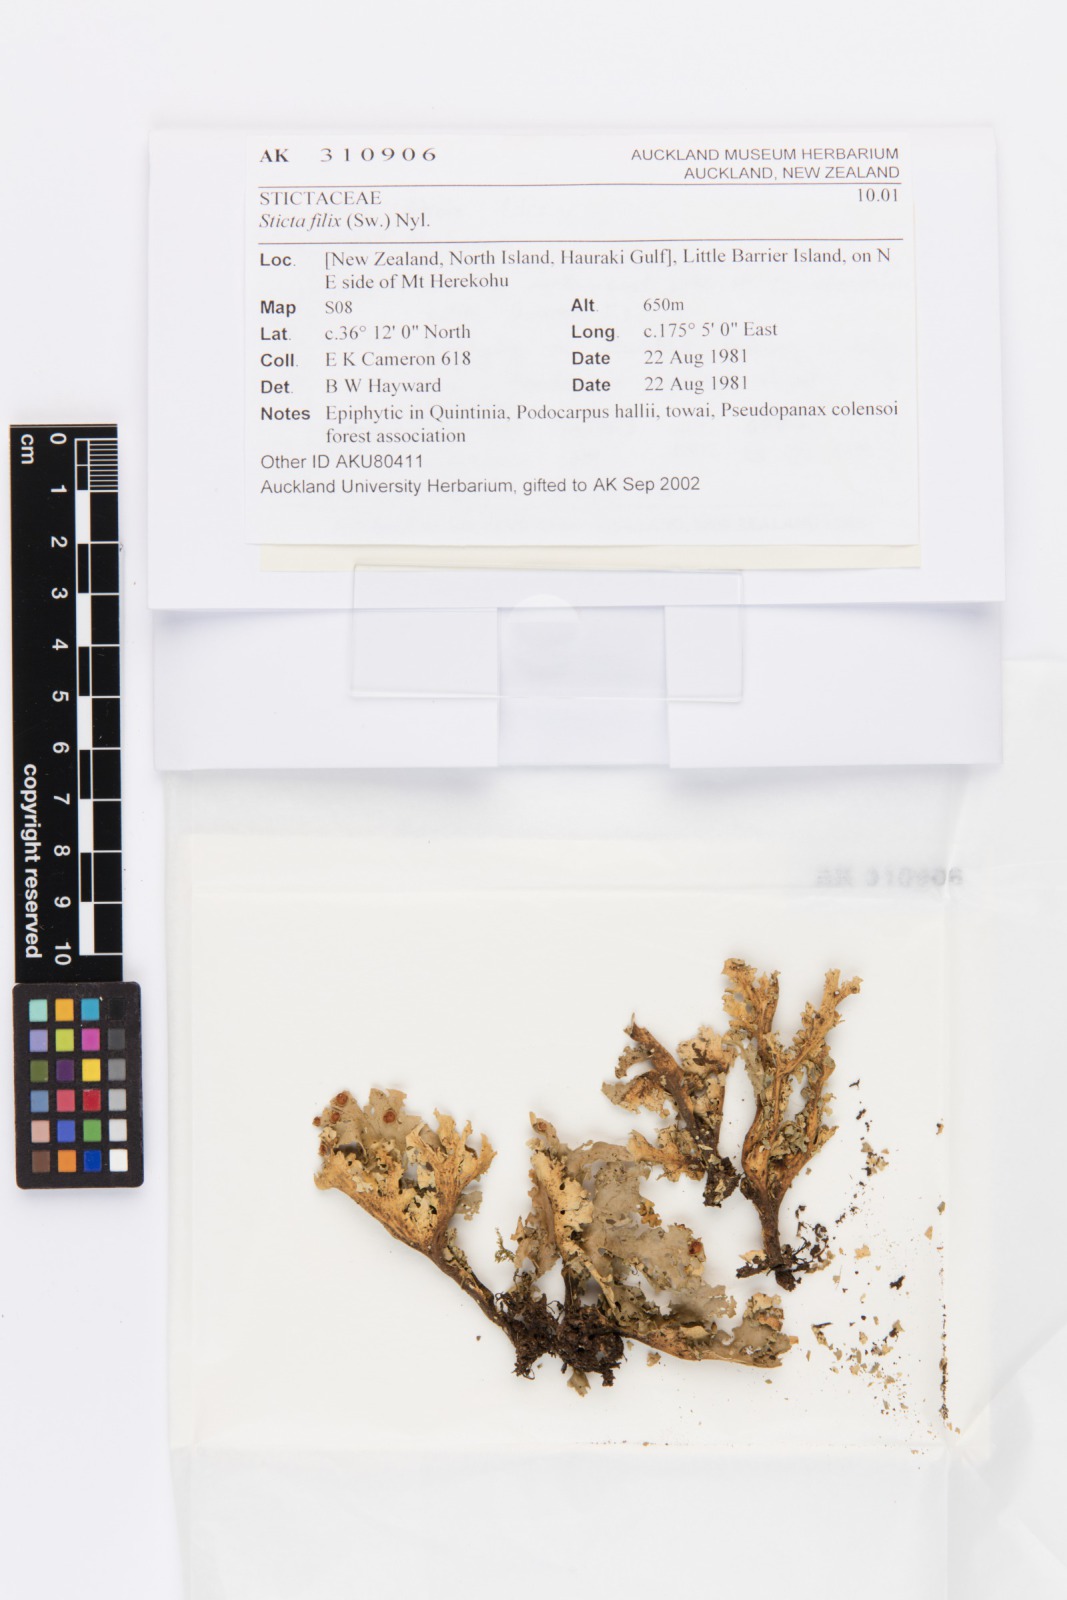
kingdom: Fungi
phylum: Ascomycota
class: Lecanoromycetes
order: Peltigerales
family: Lobariaceae
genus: Sticta
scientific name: Sticta filix
